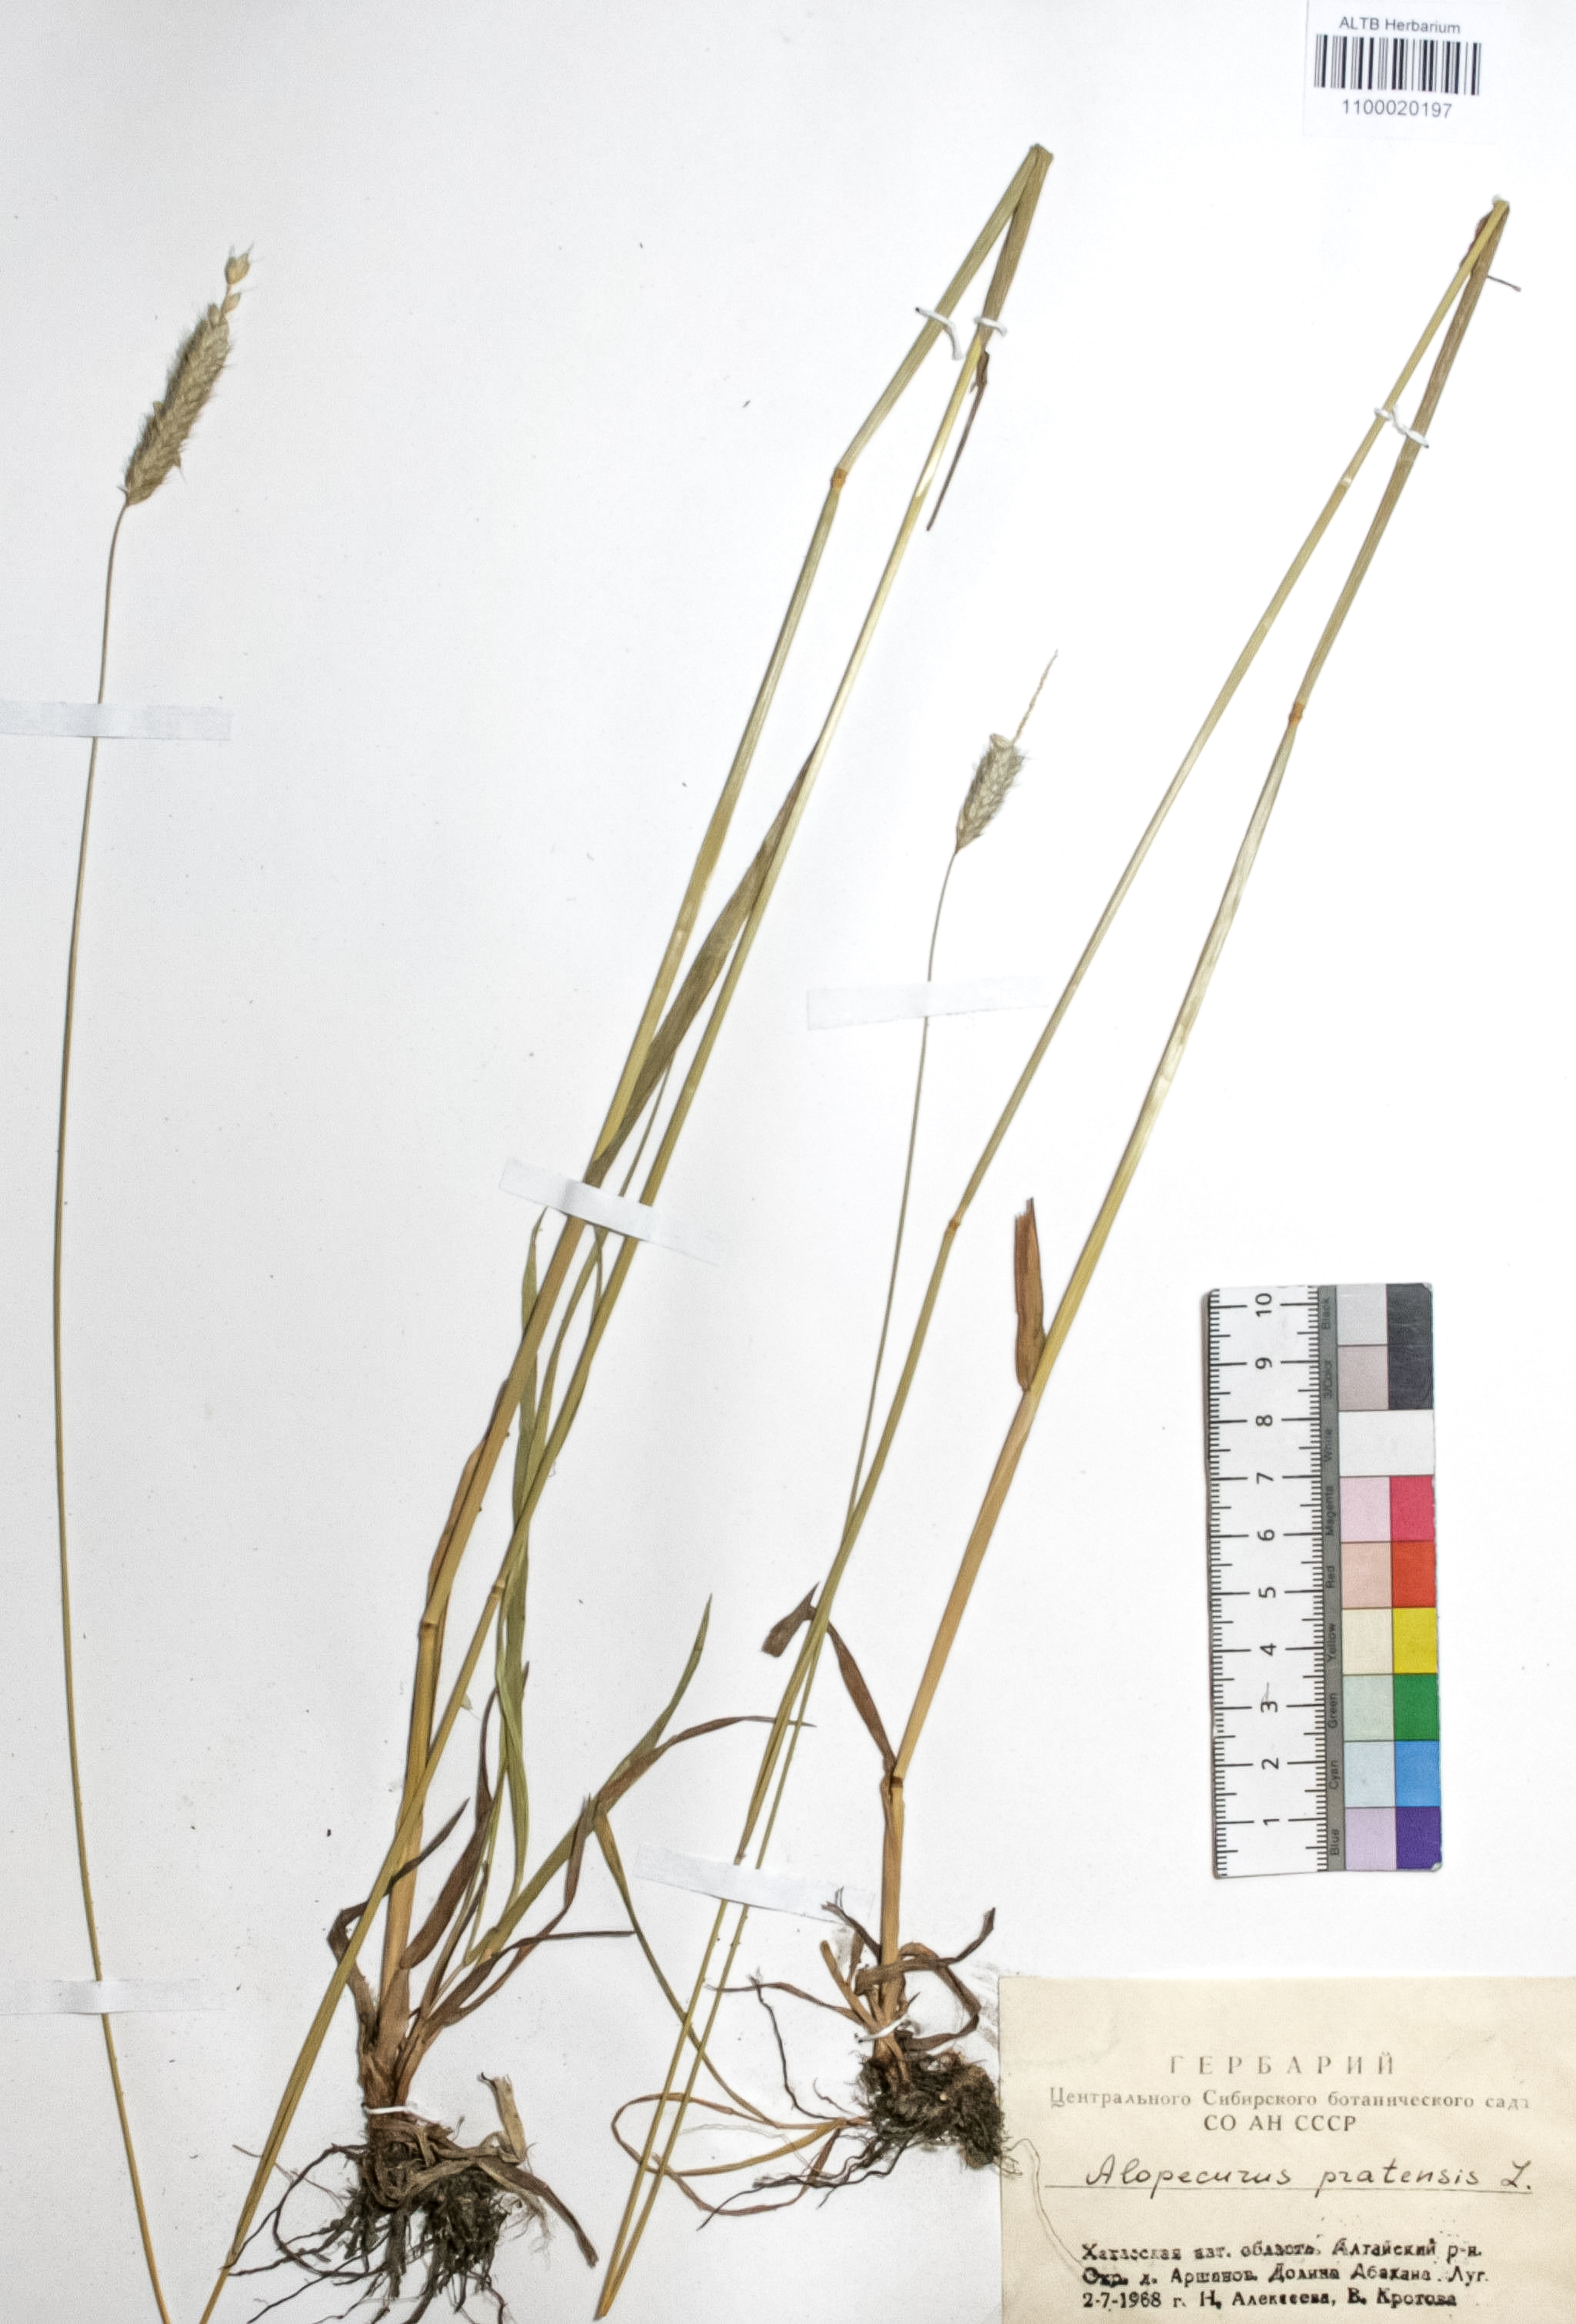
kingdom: Plantae
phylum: Tracheophyta
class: Liliopsida
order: Poales
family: Poaceae
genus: Alopecurus
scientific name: Alopecurus pratensis
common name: Meadow foxtail
